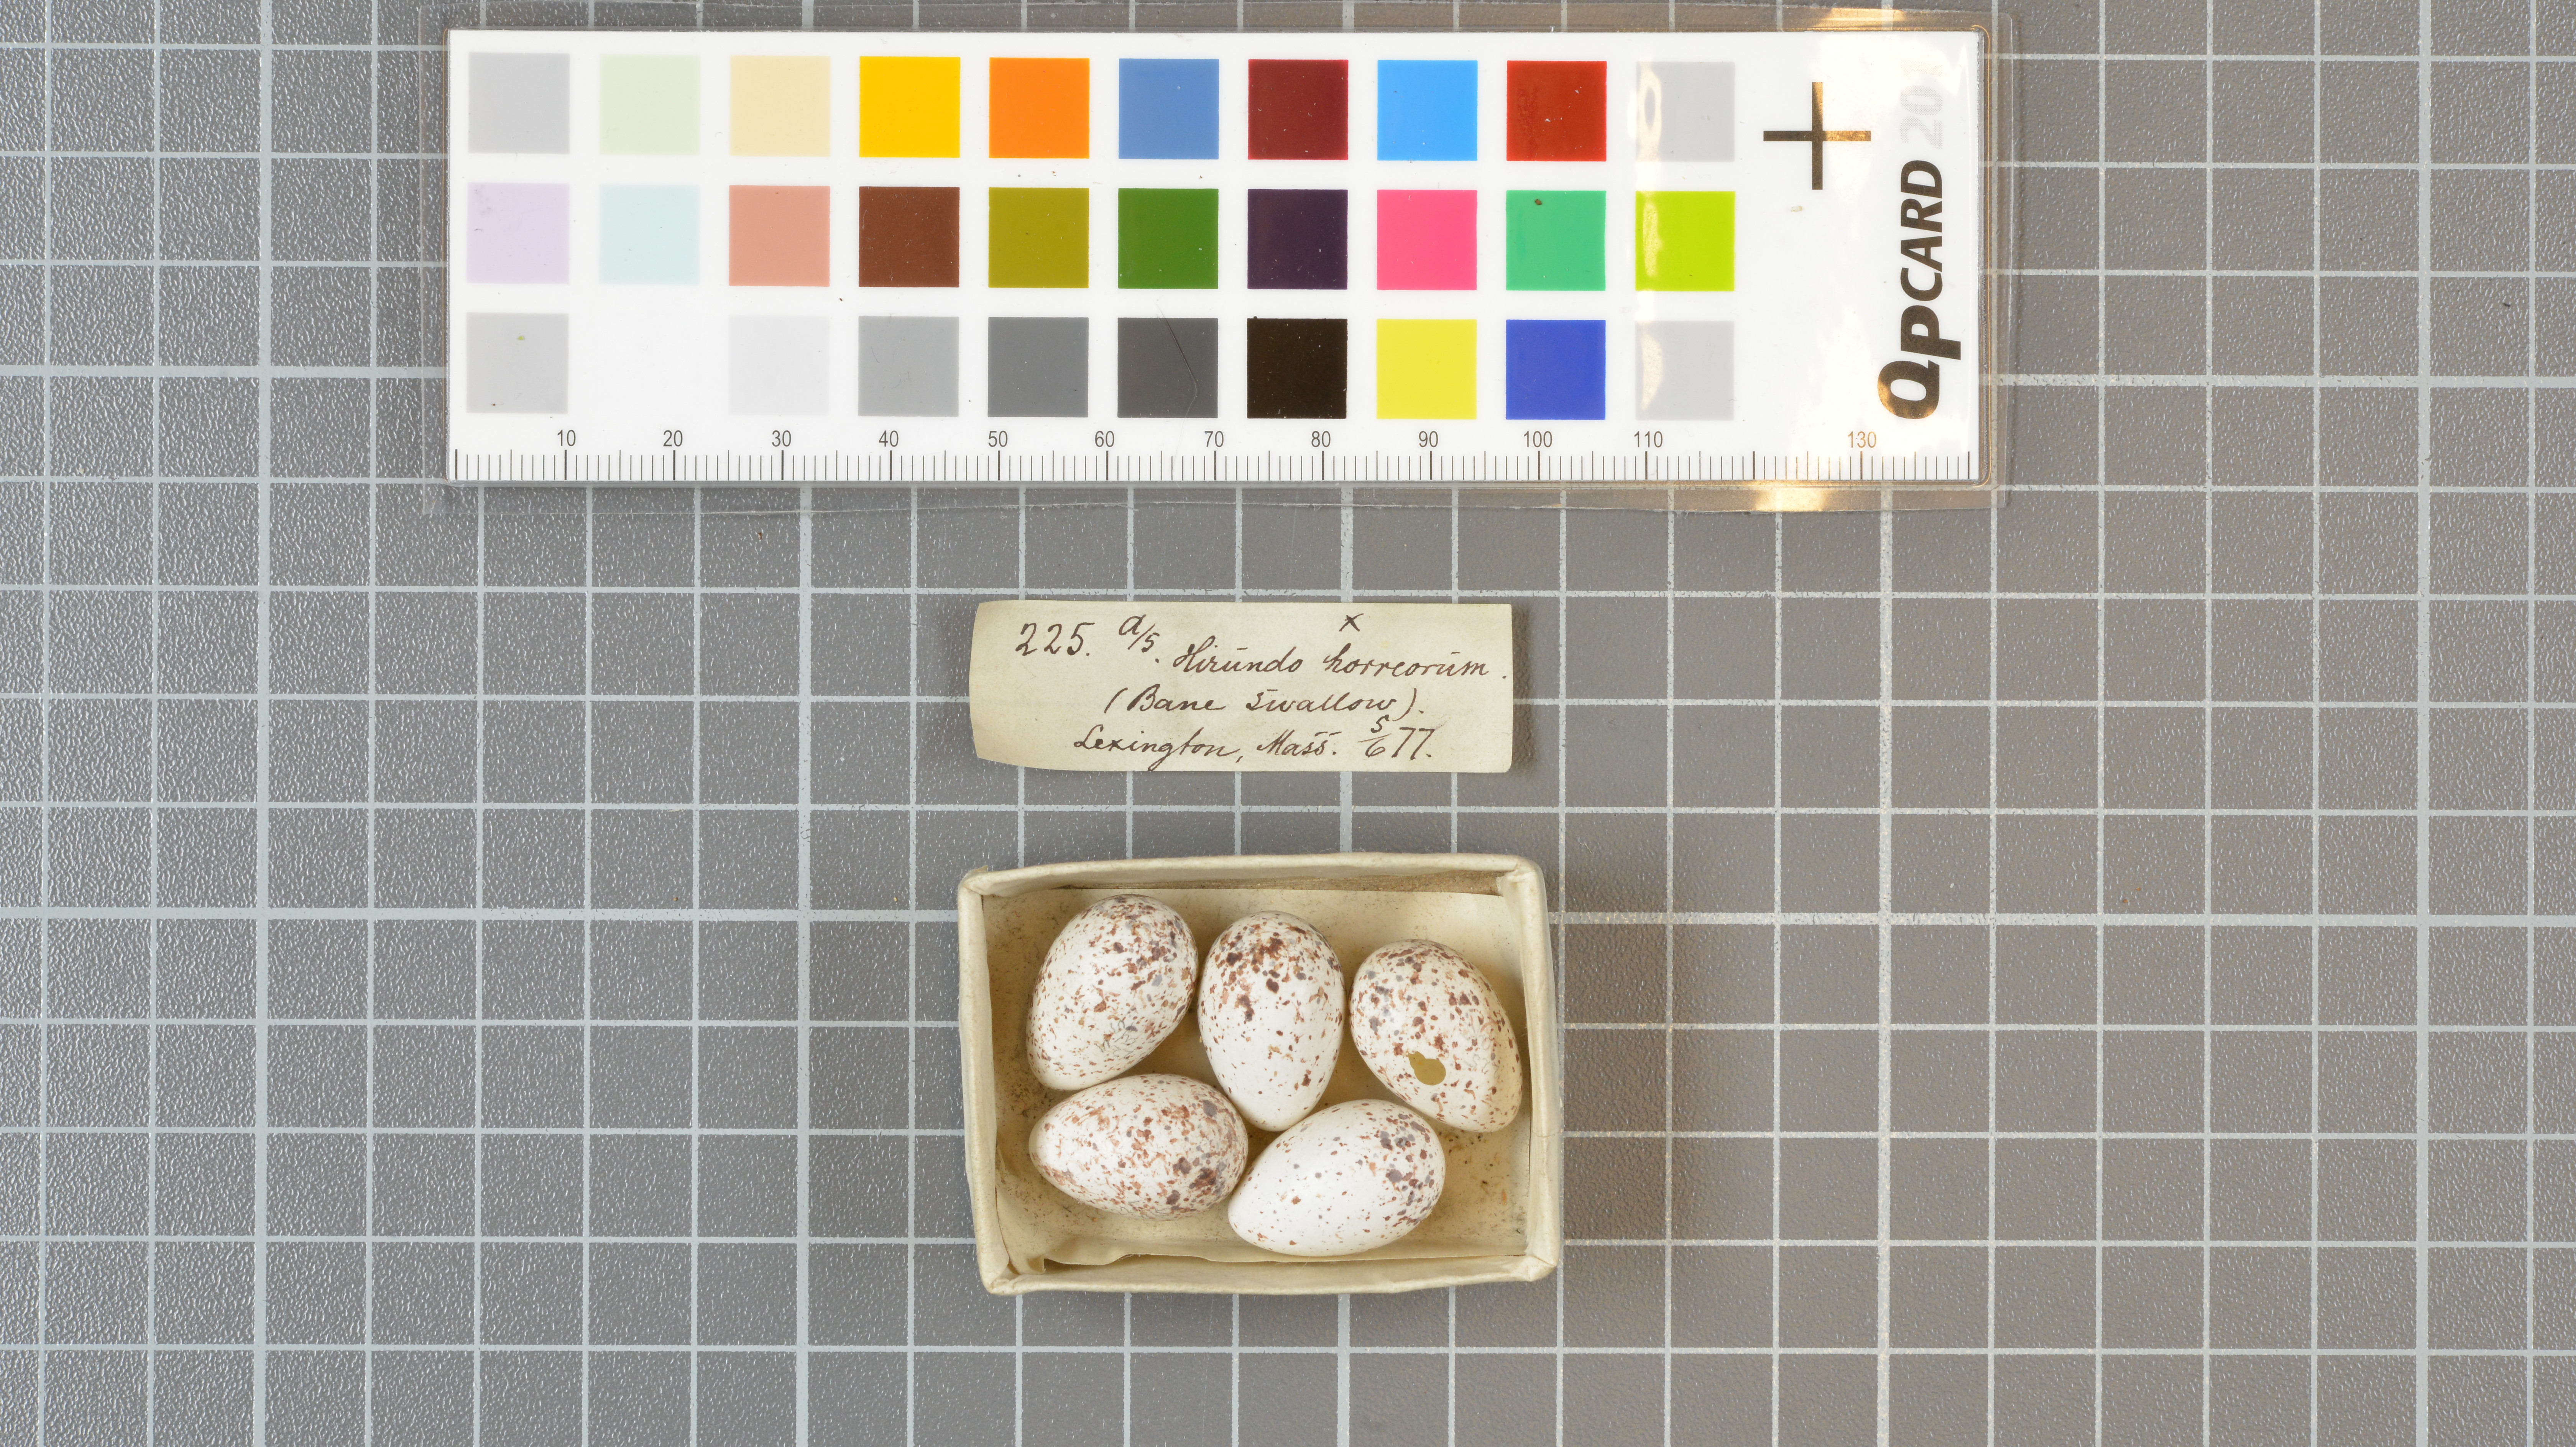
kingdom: Animalia
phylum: Chordata
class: Aves
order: Passeriformes
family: Hirundinidae
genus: Hirundo
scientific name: Hirundo rustica
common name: Barn swallow
